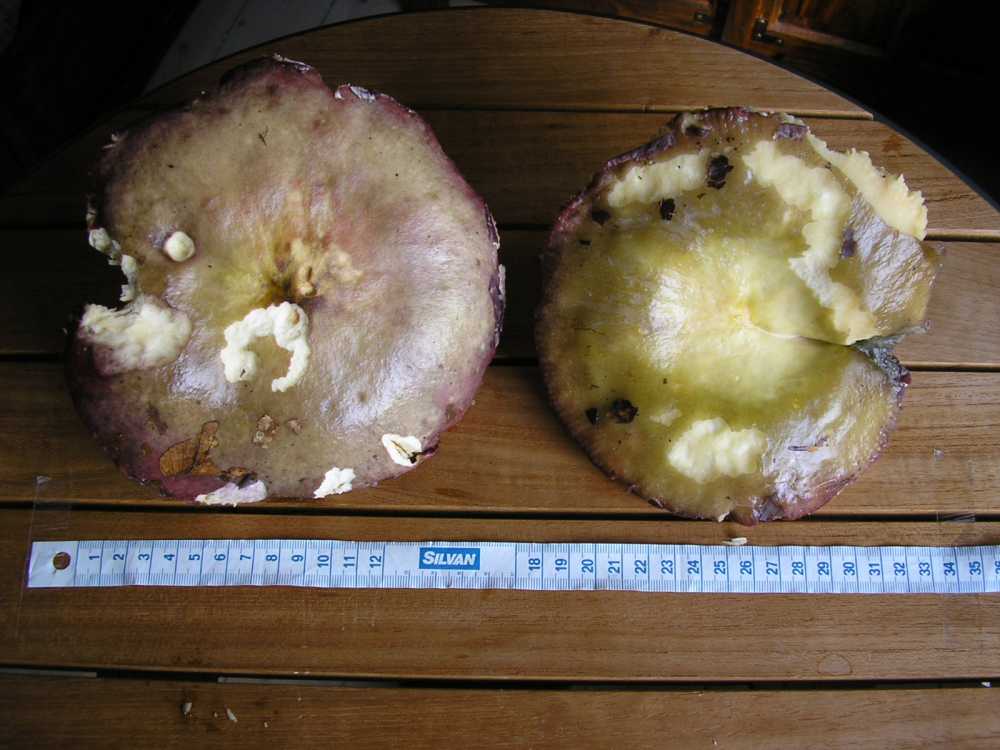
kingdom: Fungi
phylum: Basidiomycota
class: Agaricomycetes
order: Russulales
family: Russulaceae
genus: Russula
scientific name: Russula romellii
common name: romells skørhat
